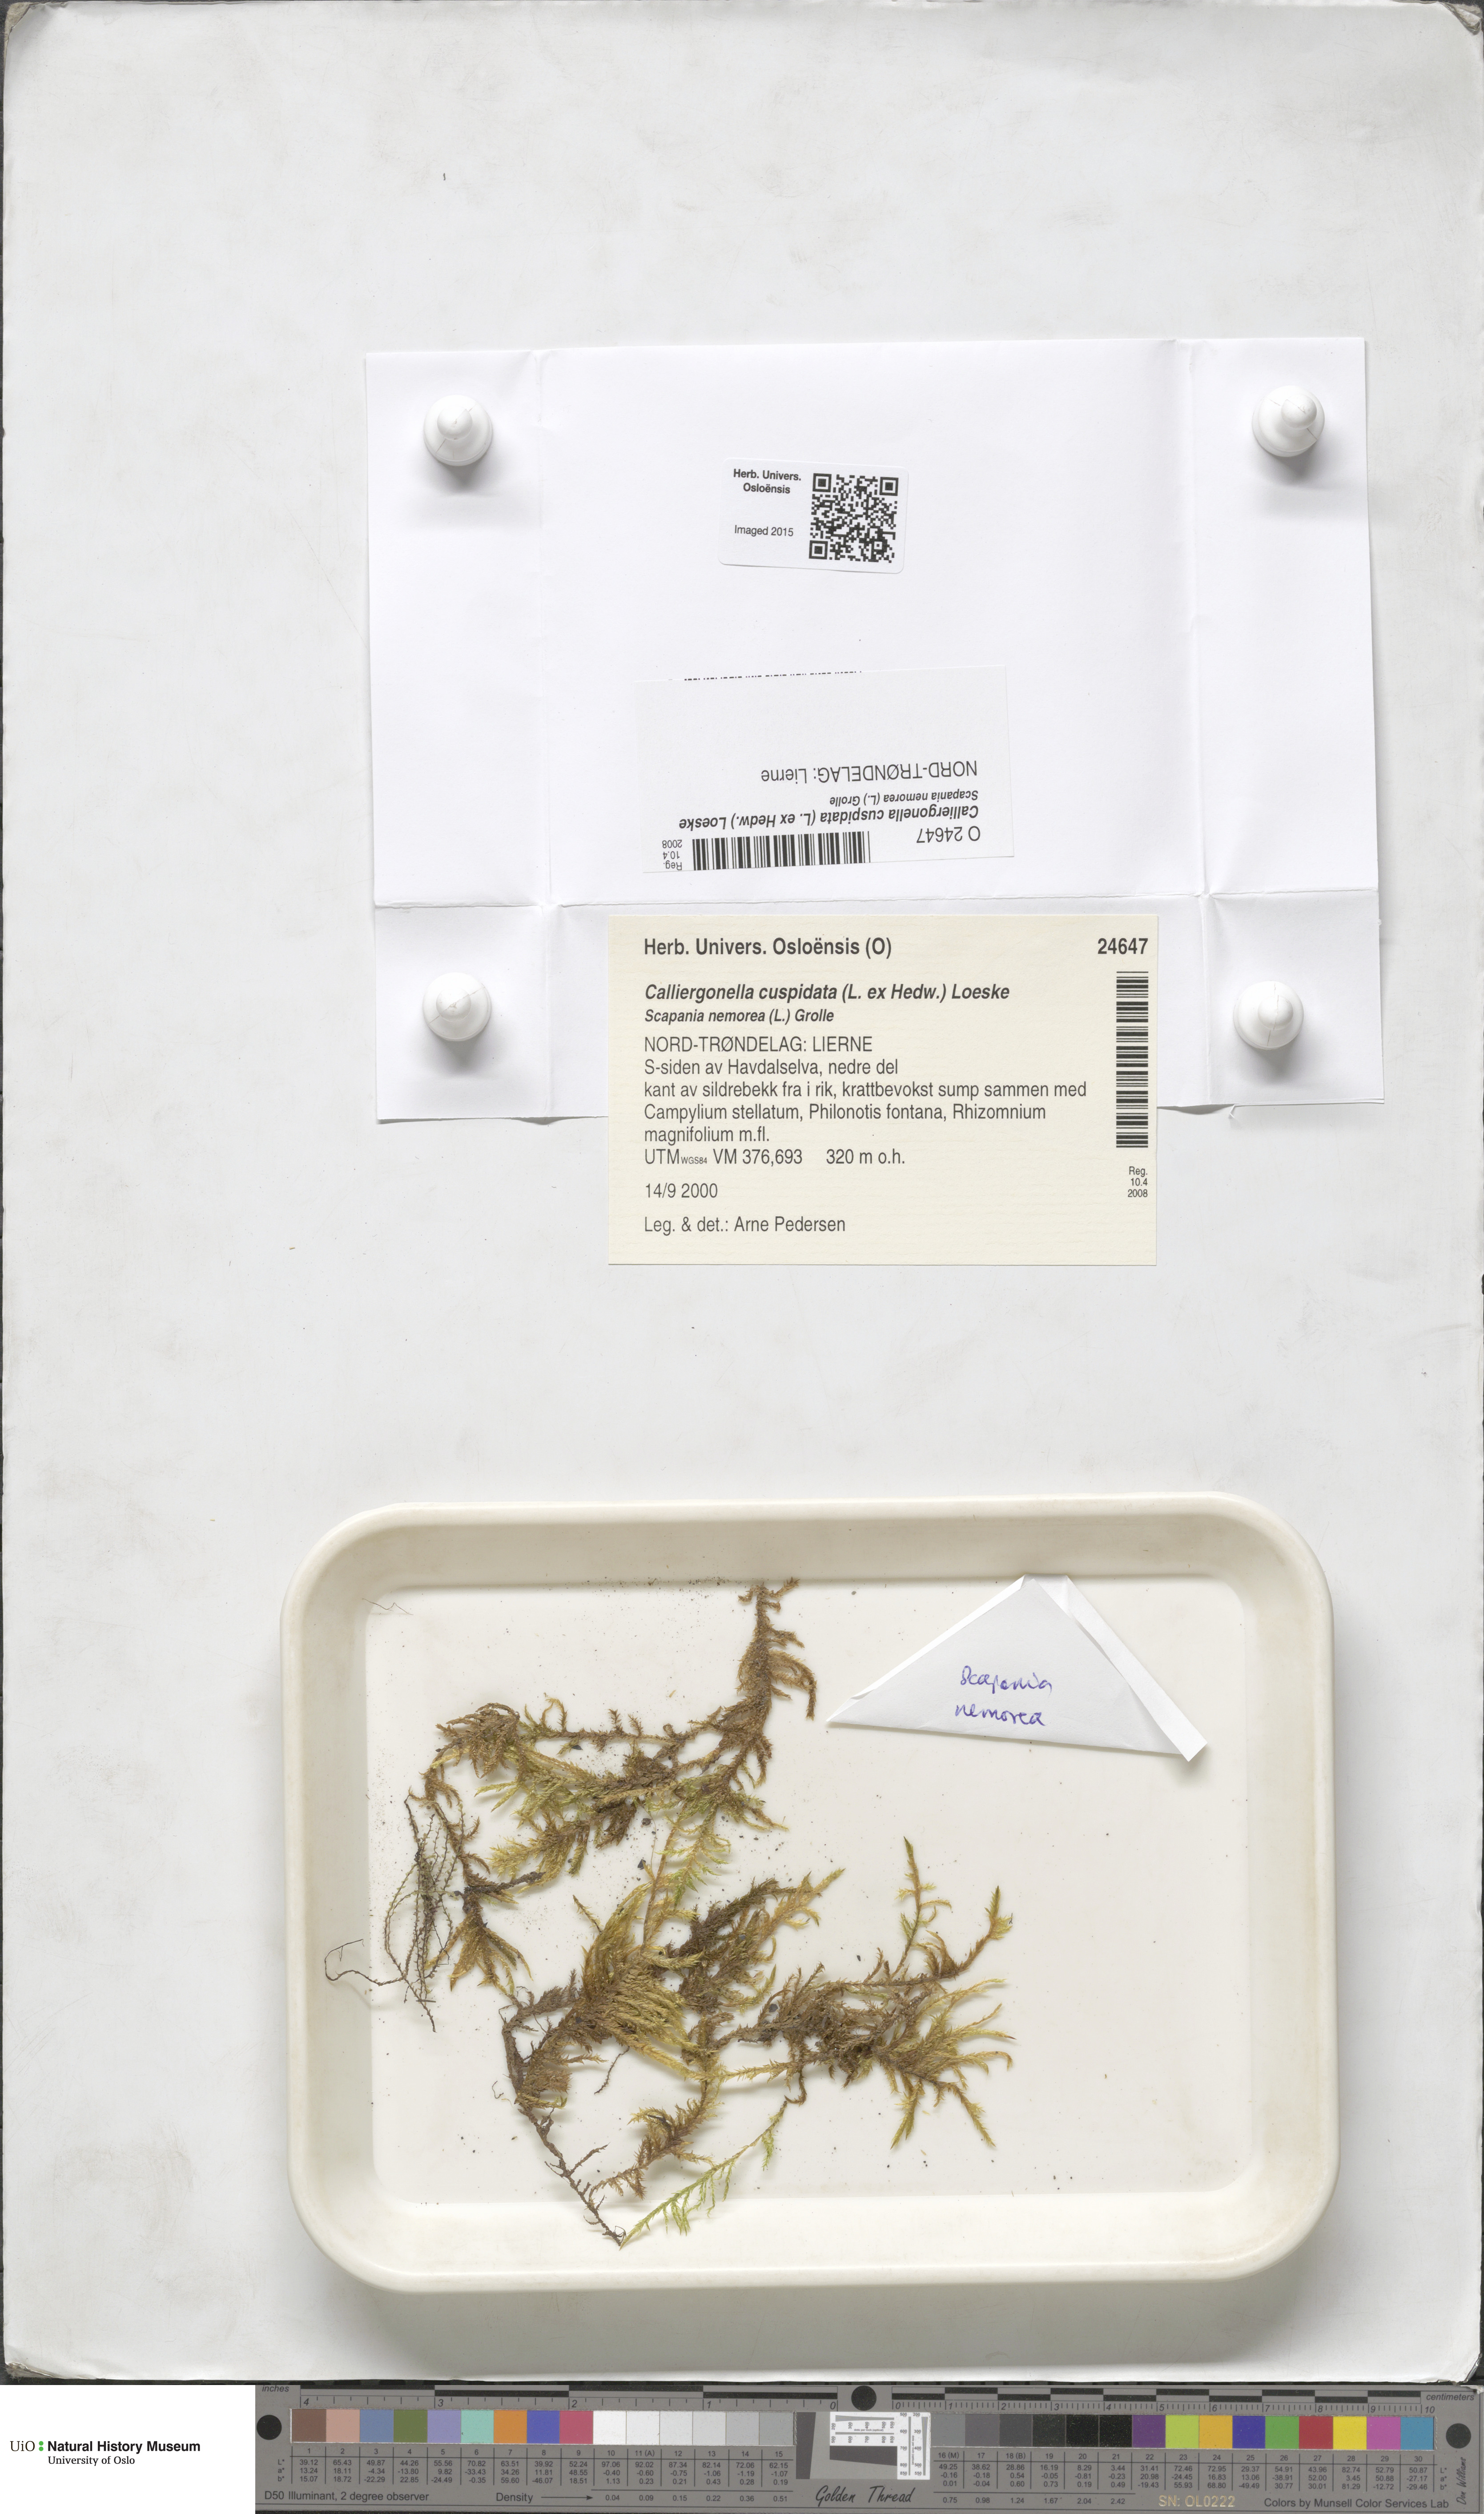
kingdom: Plantae
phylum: Bryophyta
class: Bryopsida
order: Hypnales
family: Pylaisiaceae
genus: Calliergonella
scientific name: Calliergonella cuspidata
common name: Common large wetland moss
